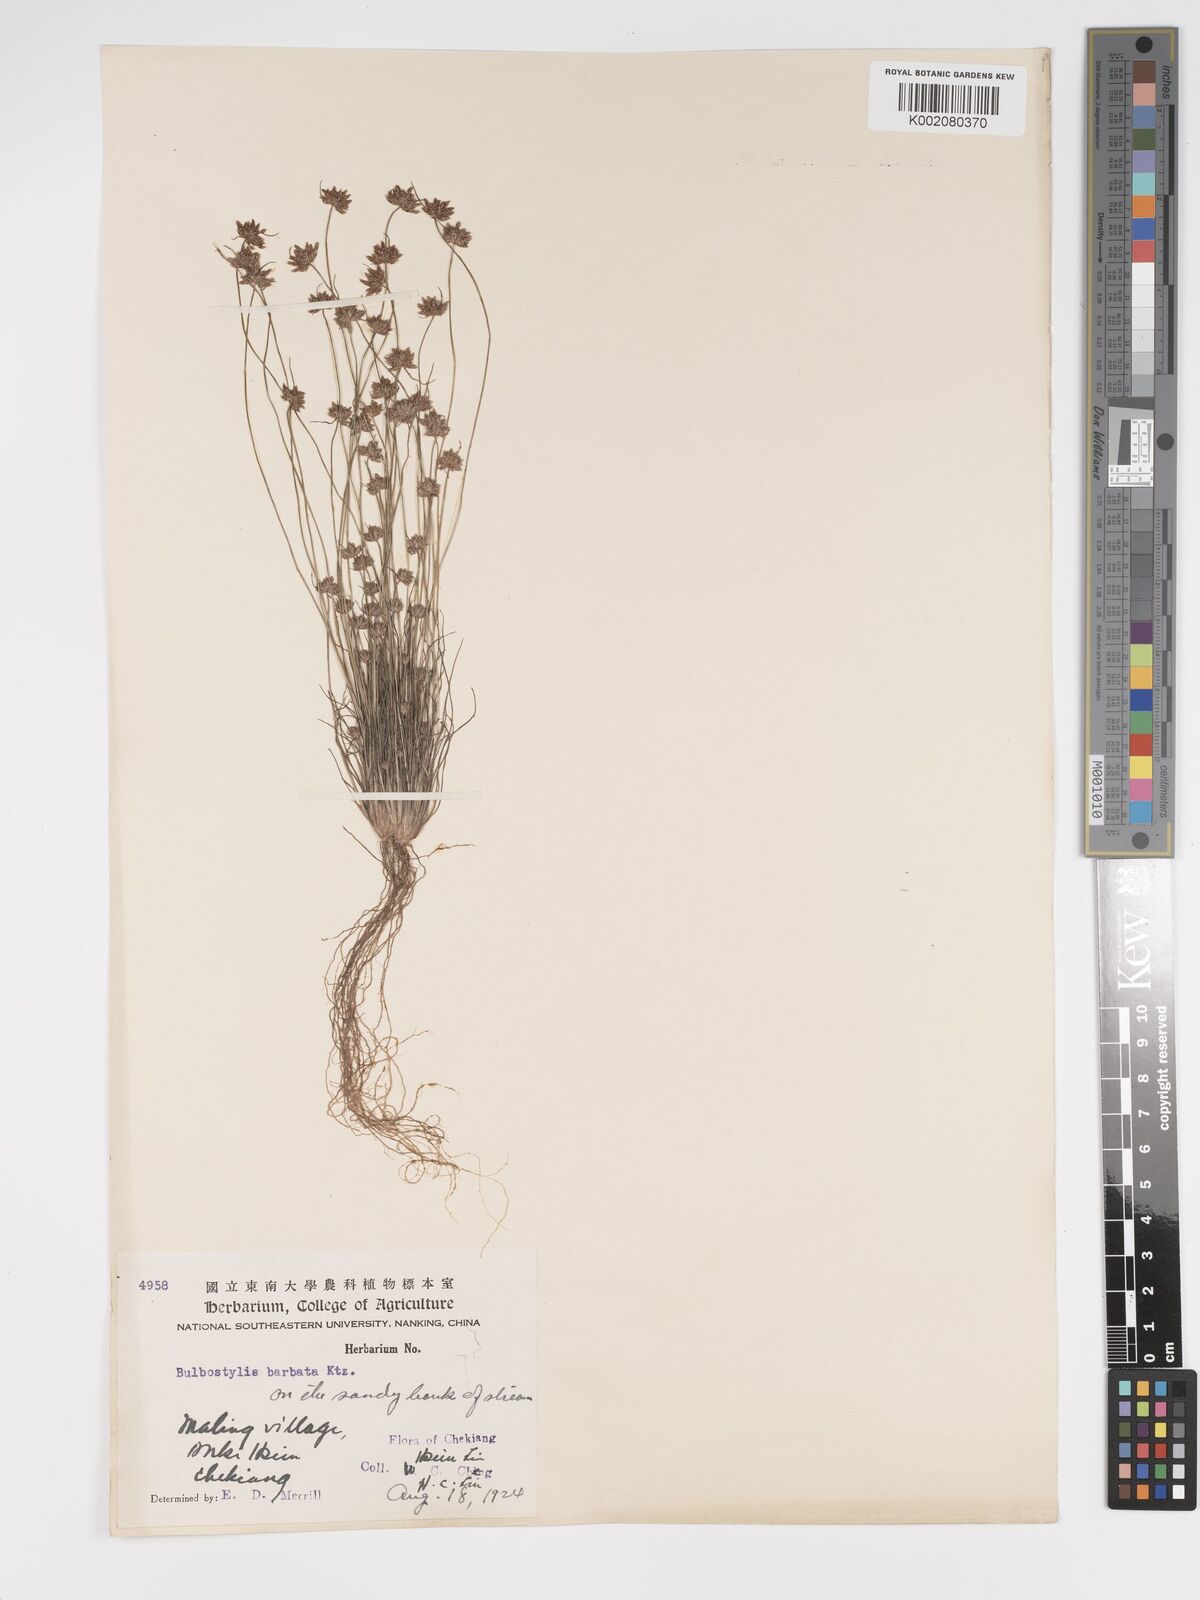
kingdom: Plantae
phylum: Tracheophyta
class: Liliopsida
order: Poales
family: Cyperaceae
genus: Bulbostylis
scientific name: Bulbostylis barbata
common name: Watergrass
